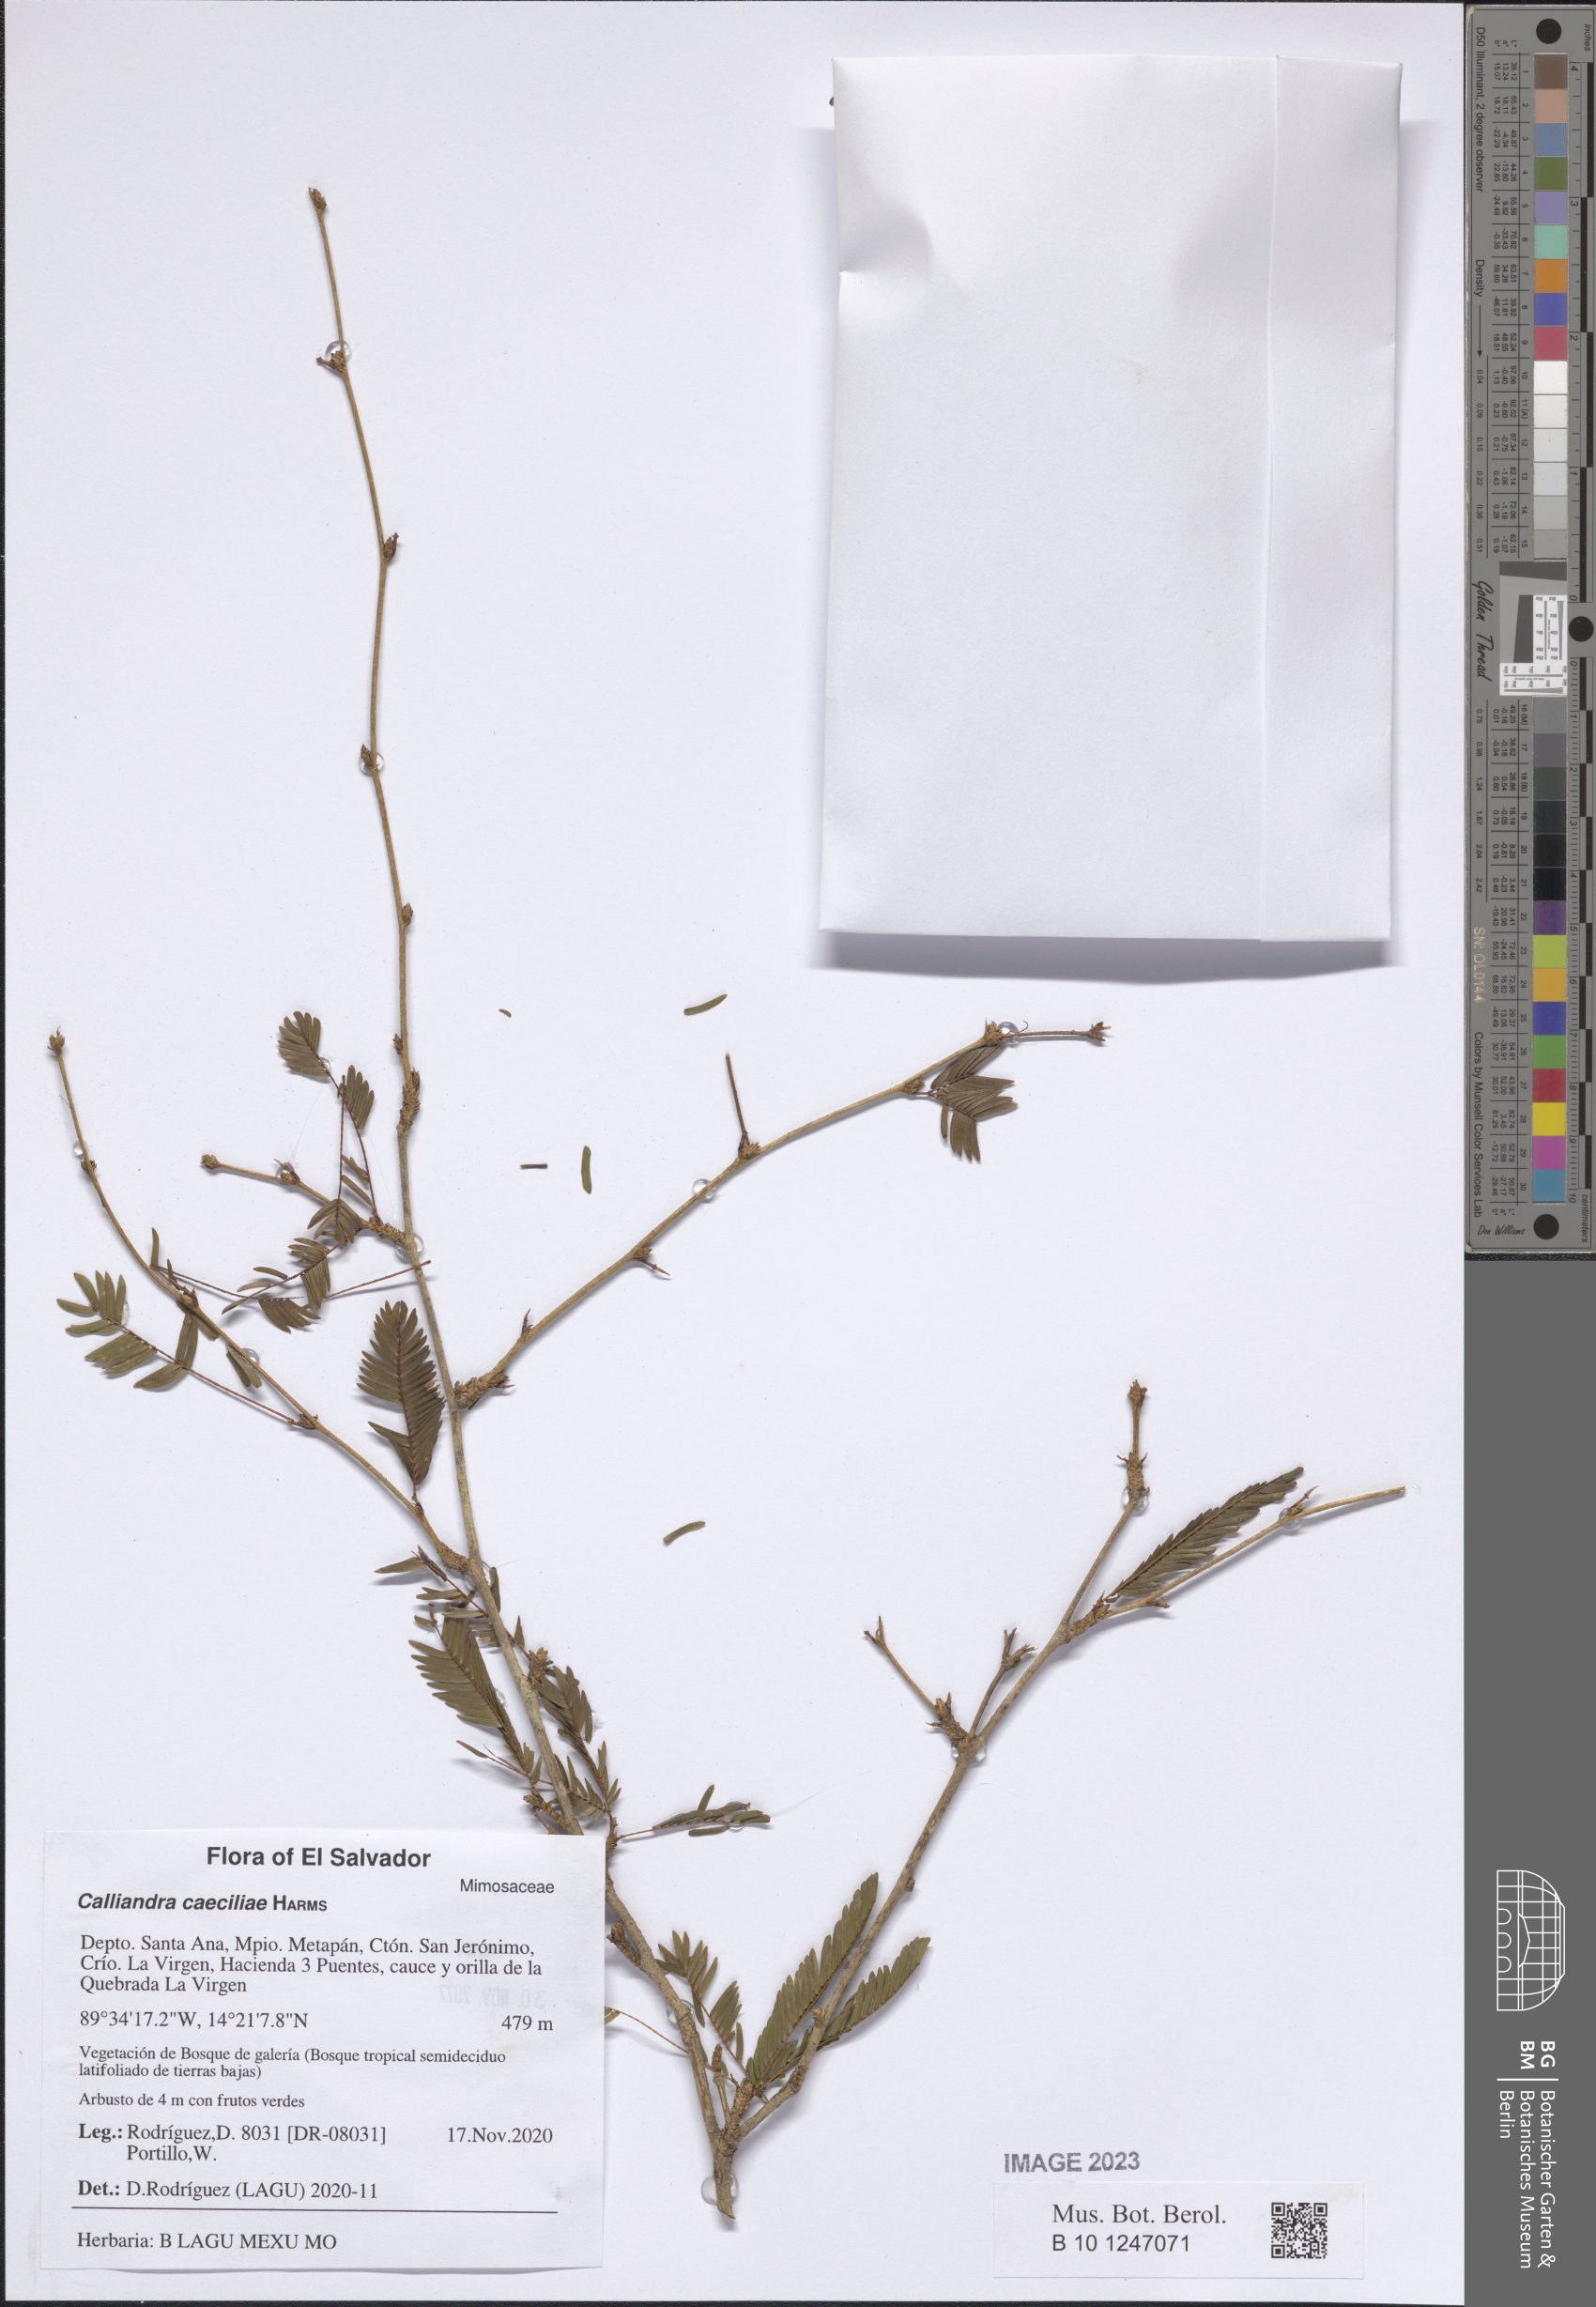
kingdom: Plantae
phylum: Tracheophyta
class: Magnoliopsida
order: Fabales
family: Fabaceae
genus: Calliandra
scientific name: Calliandra caeciliae
